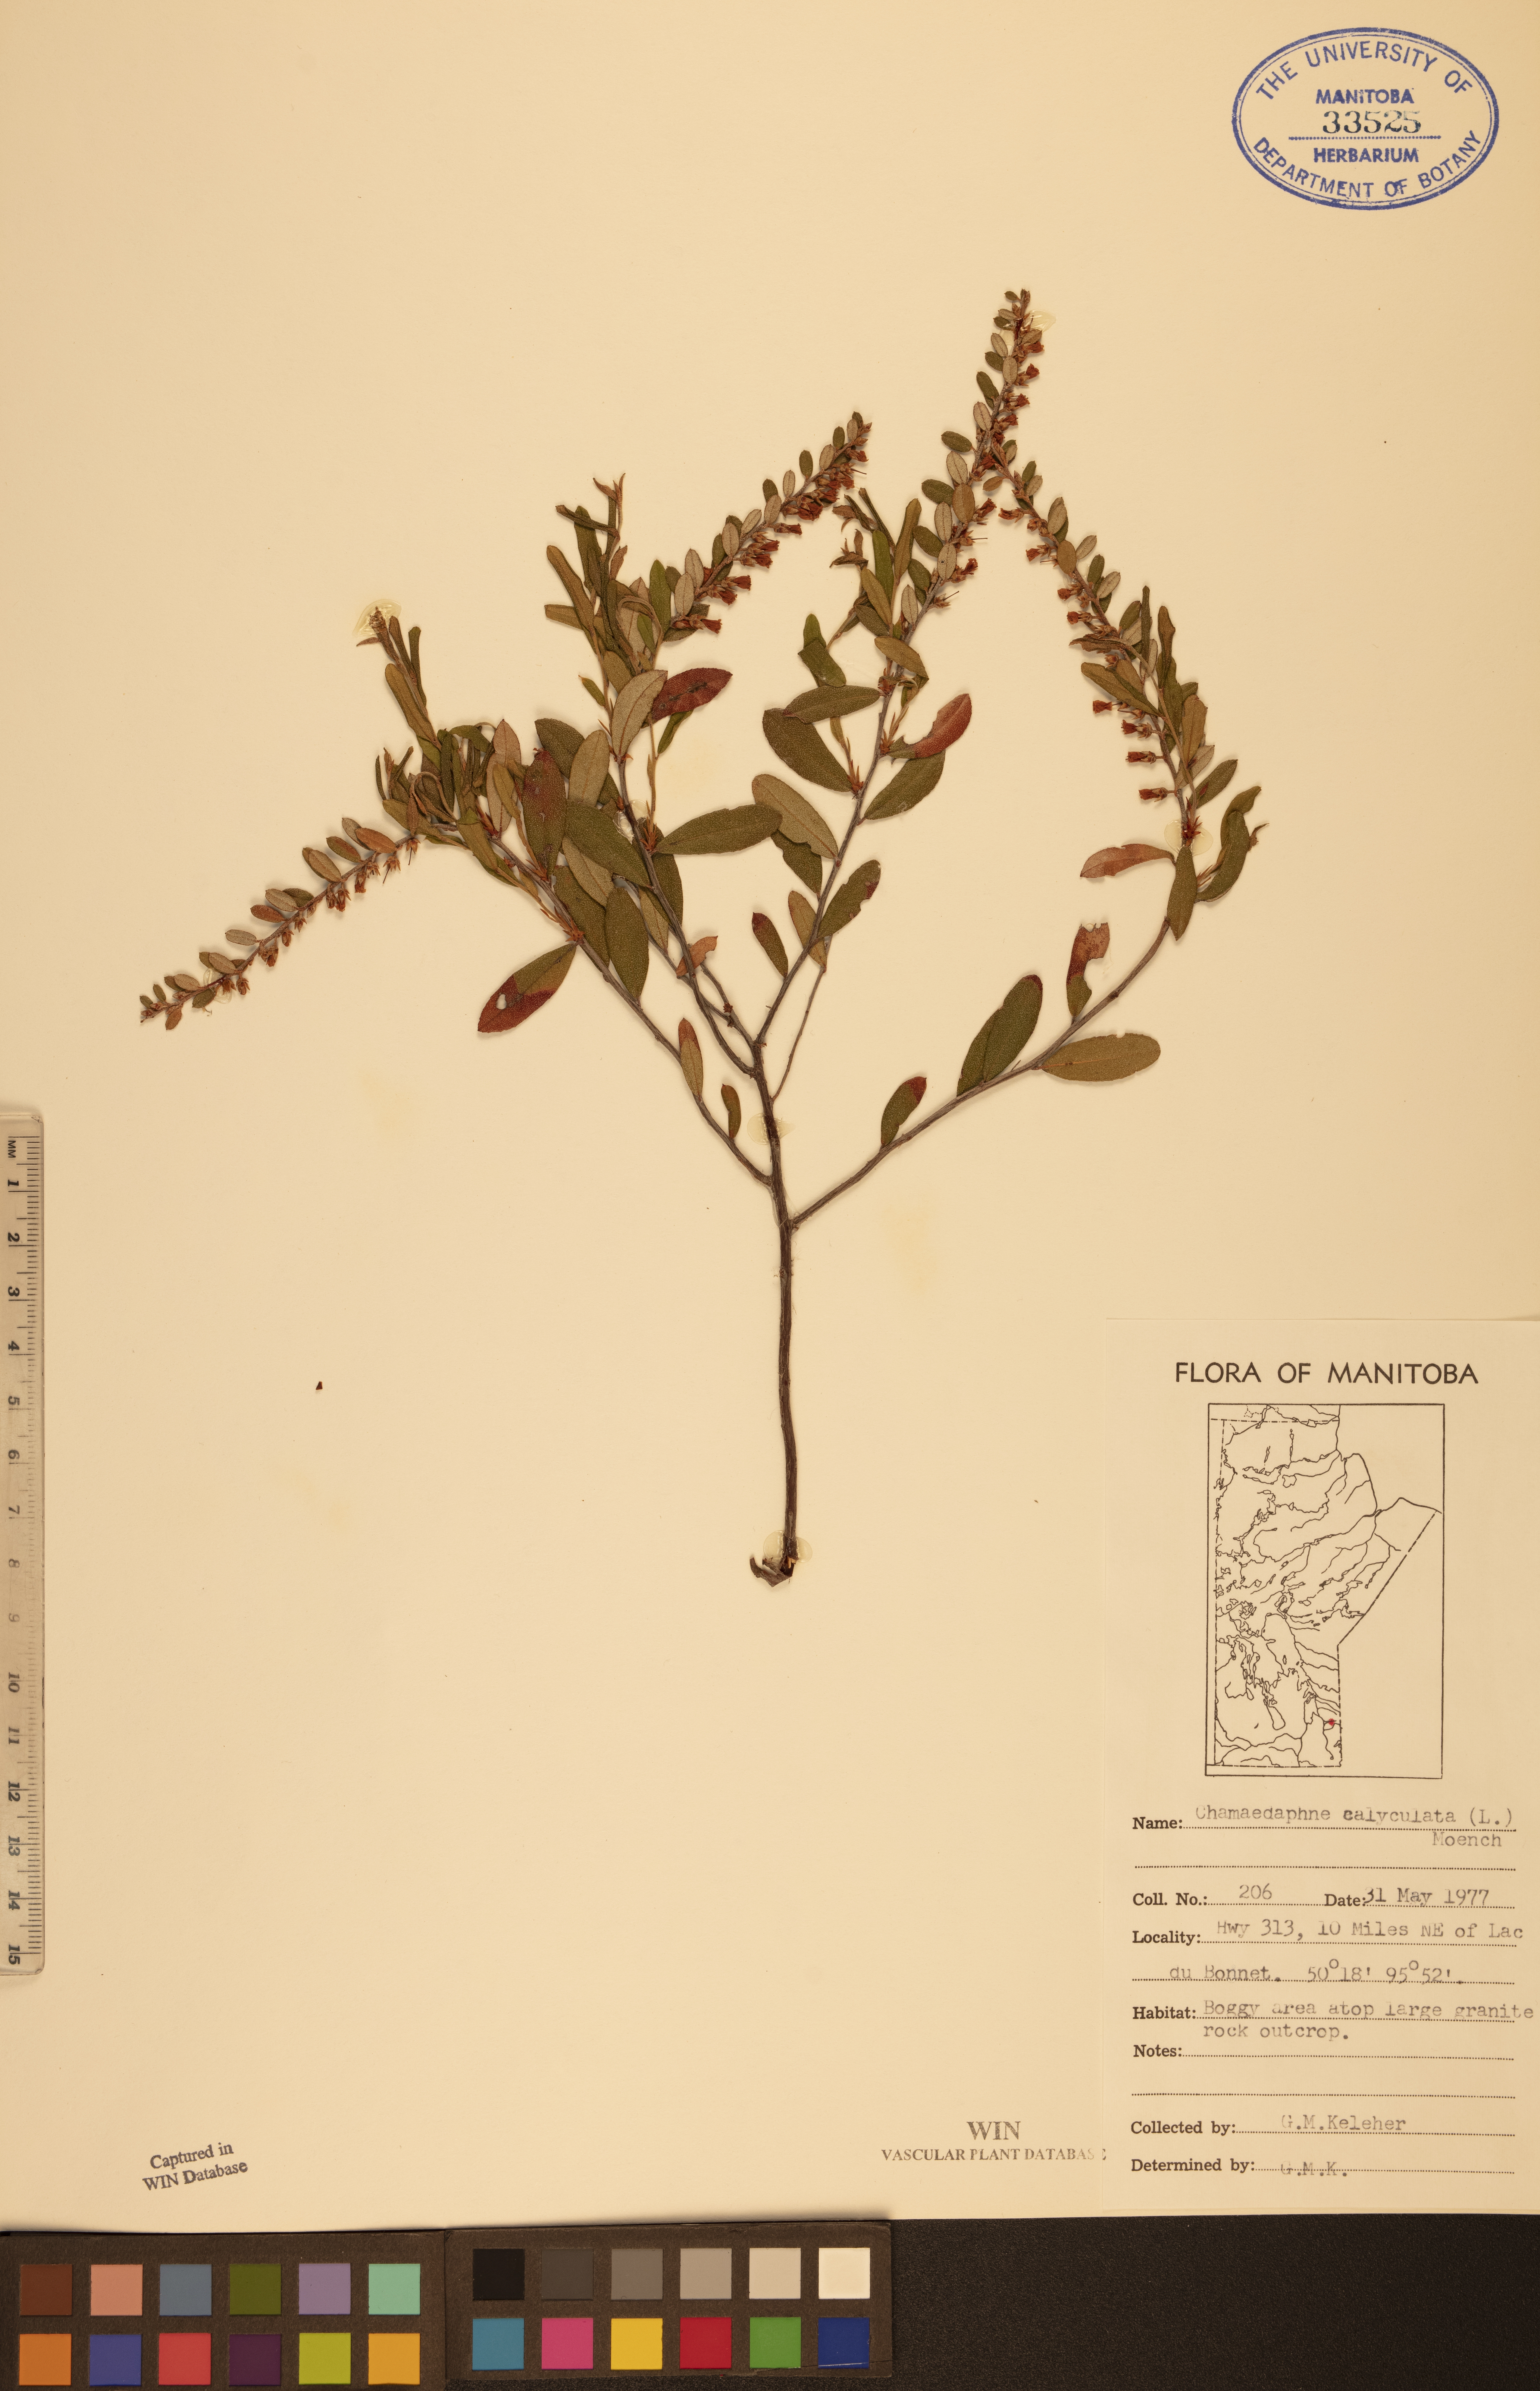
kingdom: Plantae
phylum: Tracheophyta
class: Magnoliopsida
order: Ericales
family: Ericaceae
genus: Chamaedaphne
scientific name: Chamaedaphne calyculata
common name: Leatherleaf
